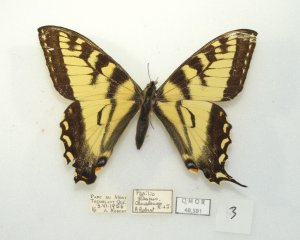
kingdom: Animalia
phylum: Arthropoda
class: Insecta
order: Lepidoptera
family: Papilionidae
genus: Pterourus
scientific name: Pterourus canadensis
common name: Canadian Tiger Swallowtail
